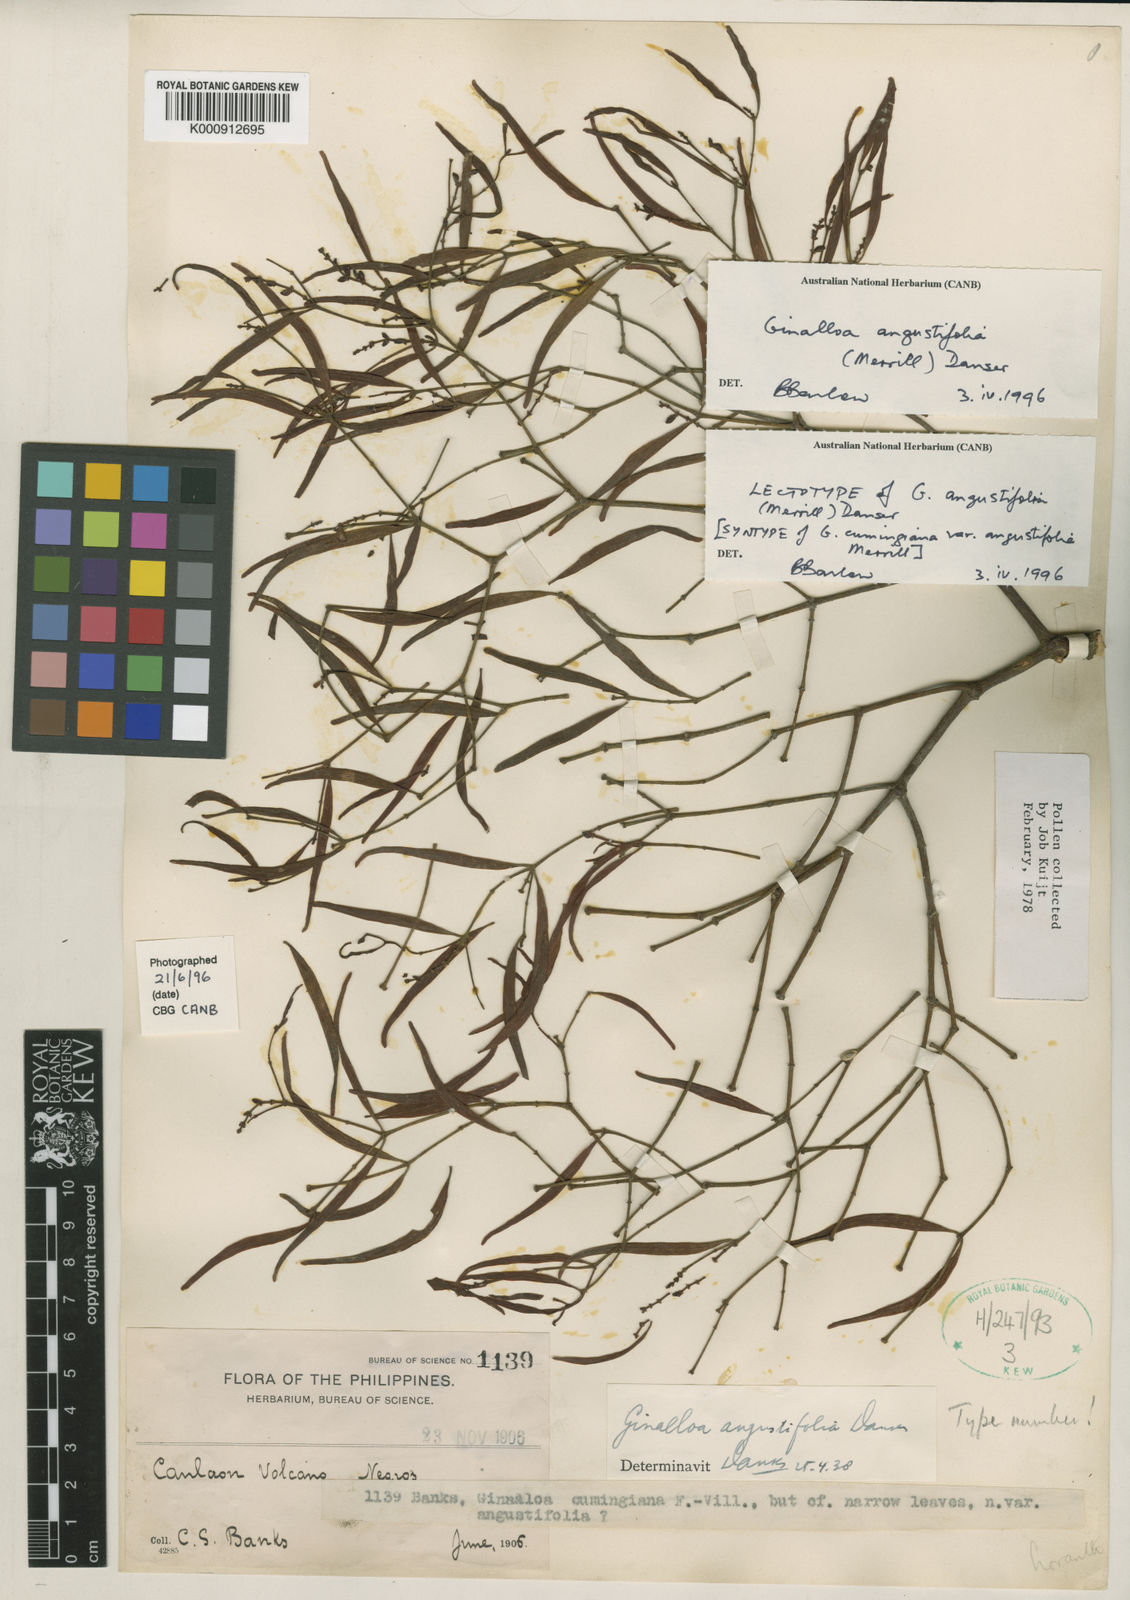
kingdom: Plantae
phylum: Tracheophyta
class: Magnoliopsida
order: Santalales
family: Viscaceae
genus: Ginalloa
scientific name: Ginalloa angustifolia
